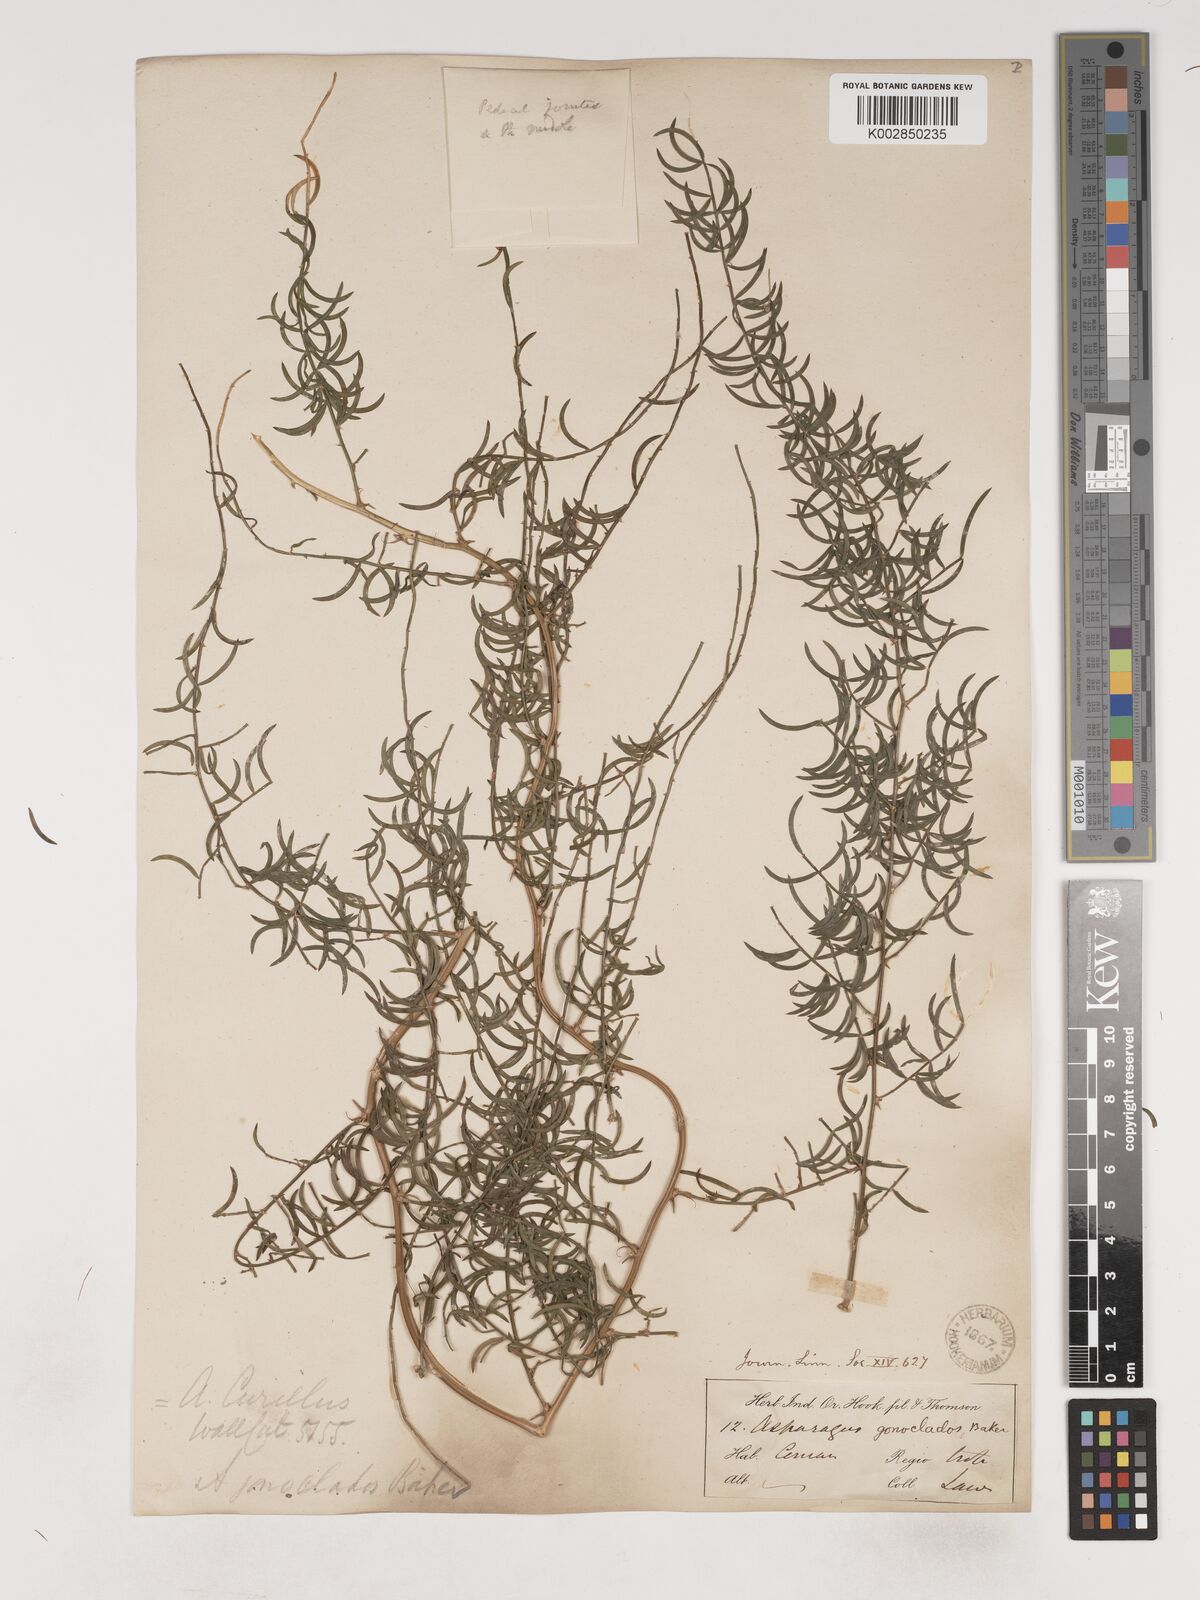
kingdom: Plantae
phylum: Tracheophyta
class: Liliopsida
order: Asparagales
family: Asparagaceae
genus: Asparagus
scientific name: Asparagus gonoclados
